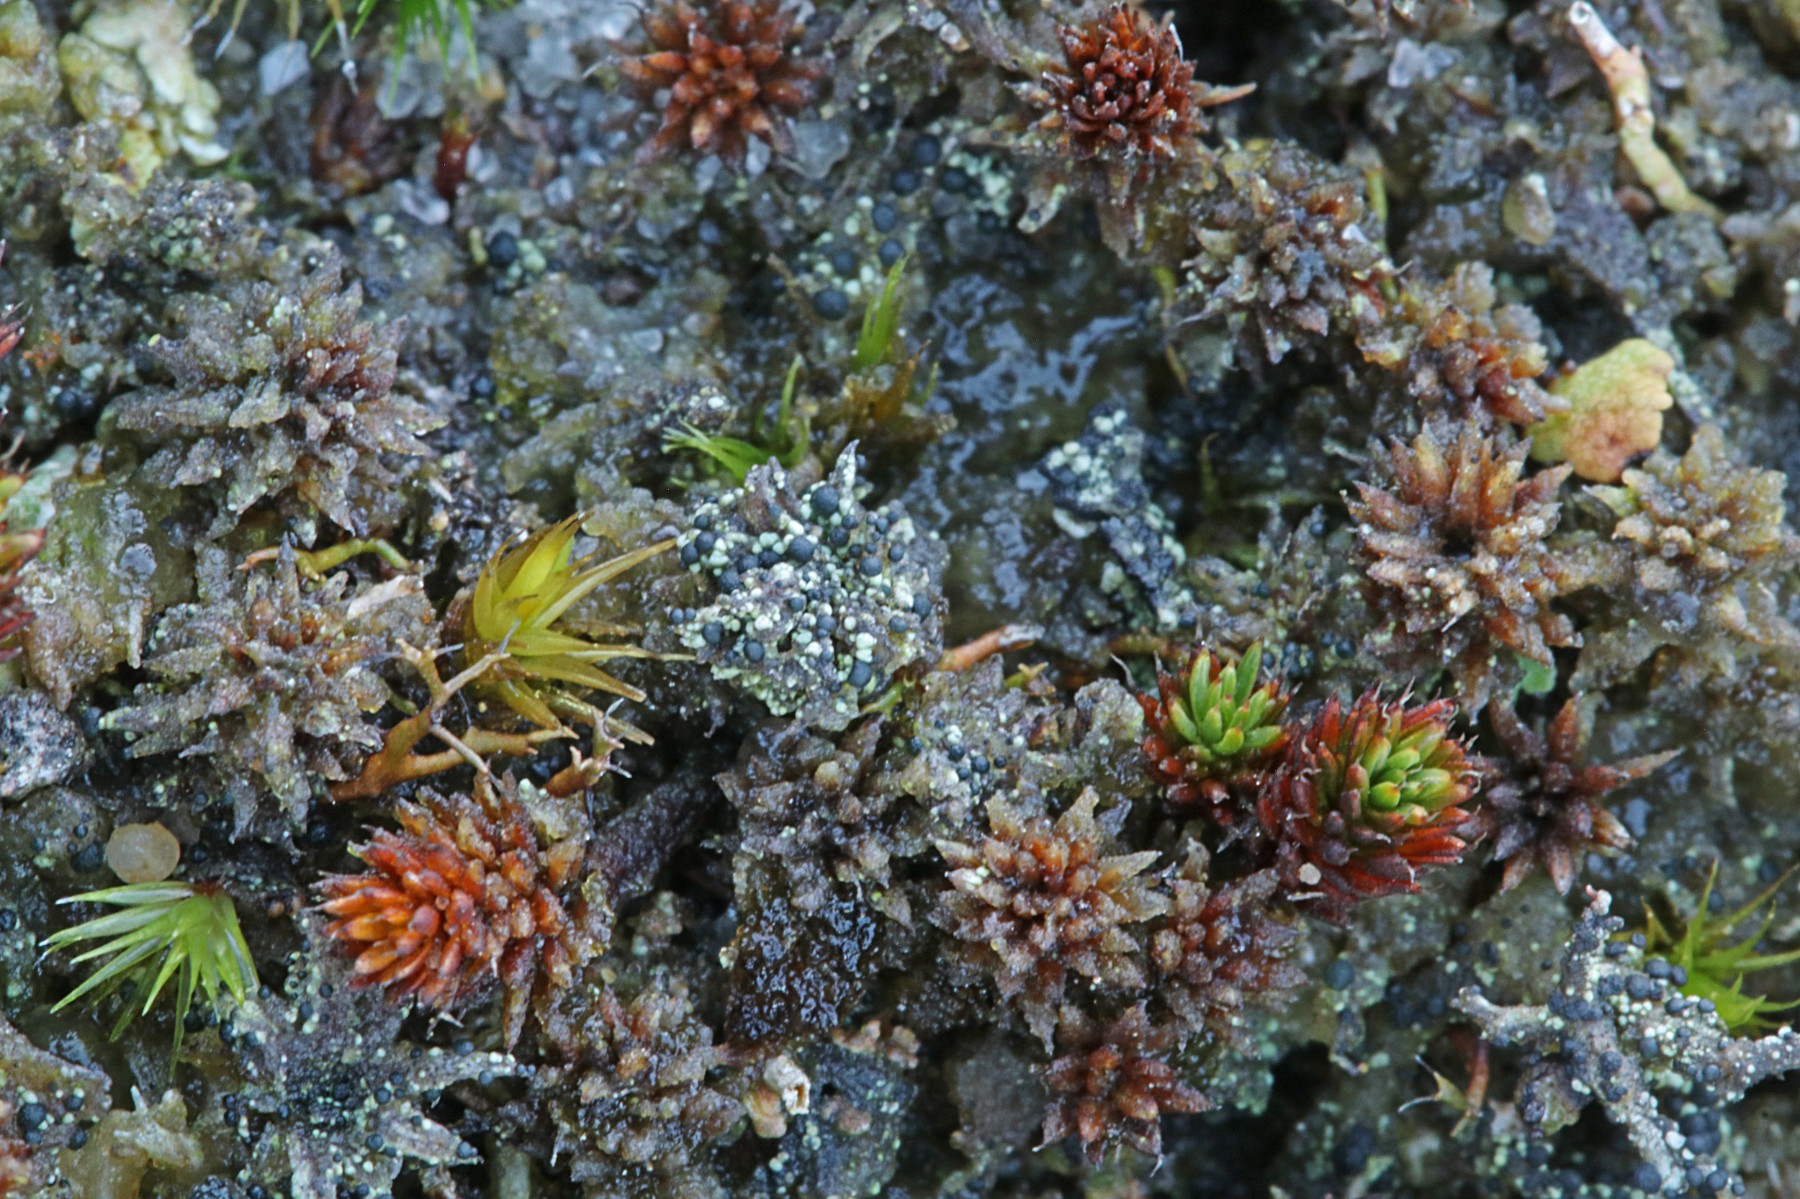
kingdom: Fungi
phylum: Ascomycota
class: Lecanoromycetes
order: Lecanorales
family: Byssolomataceae
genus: Micarea
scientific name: Micarea lignaria
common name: tørve-knaplav
